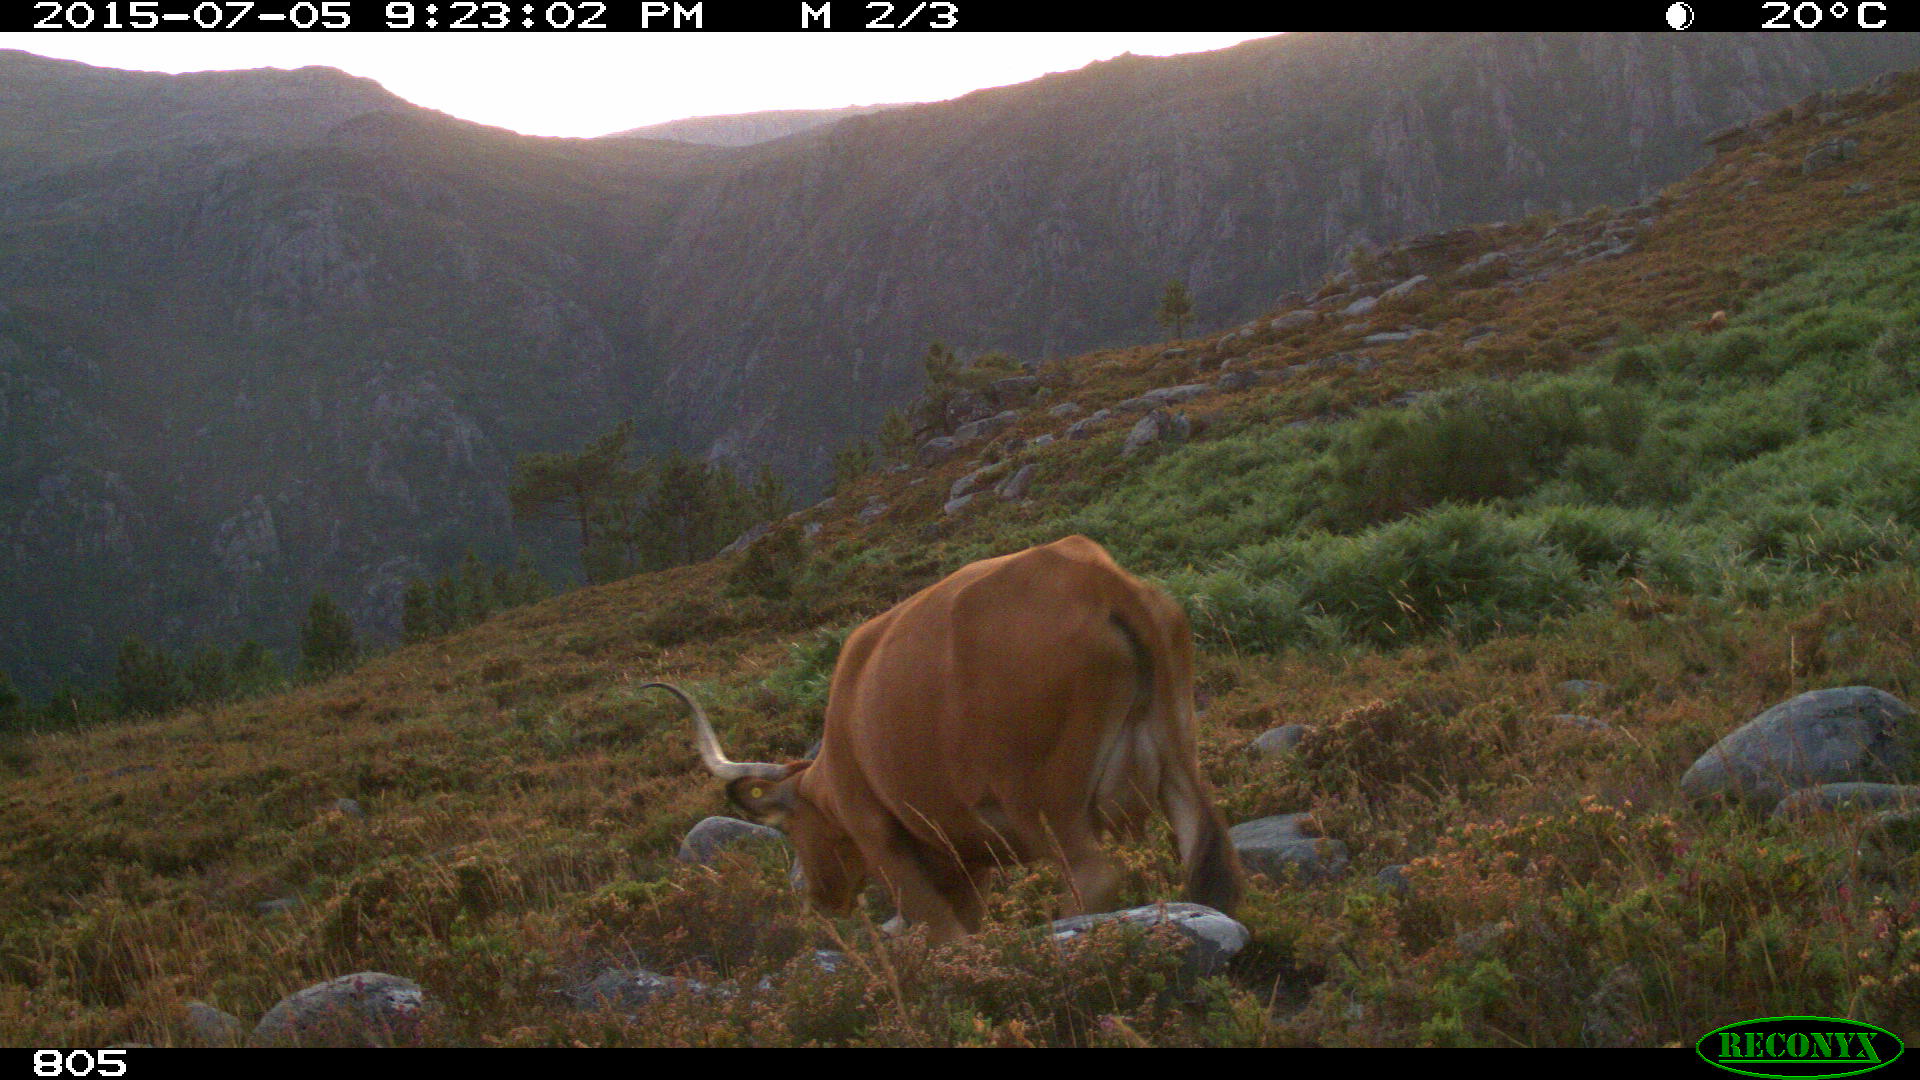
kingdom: Animalia
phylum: Chordata
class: Mammalia
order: Artiodactyla
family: Bovidae
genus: Bos
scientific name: Bos taurus
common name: Domesticated cattle
